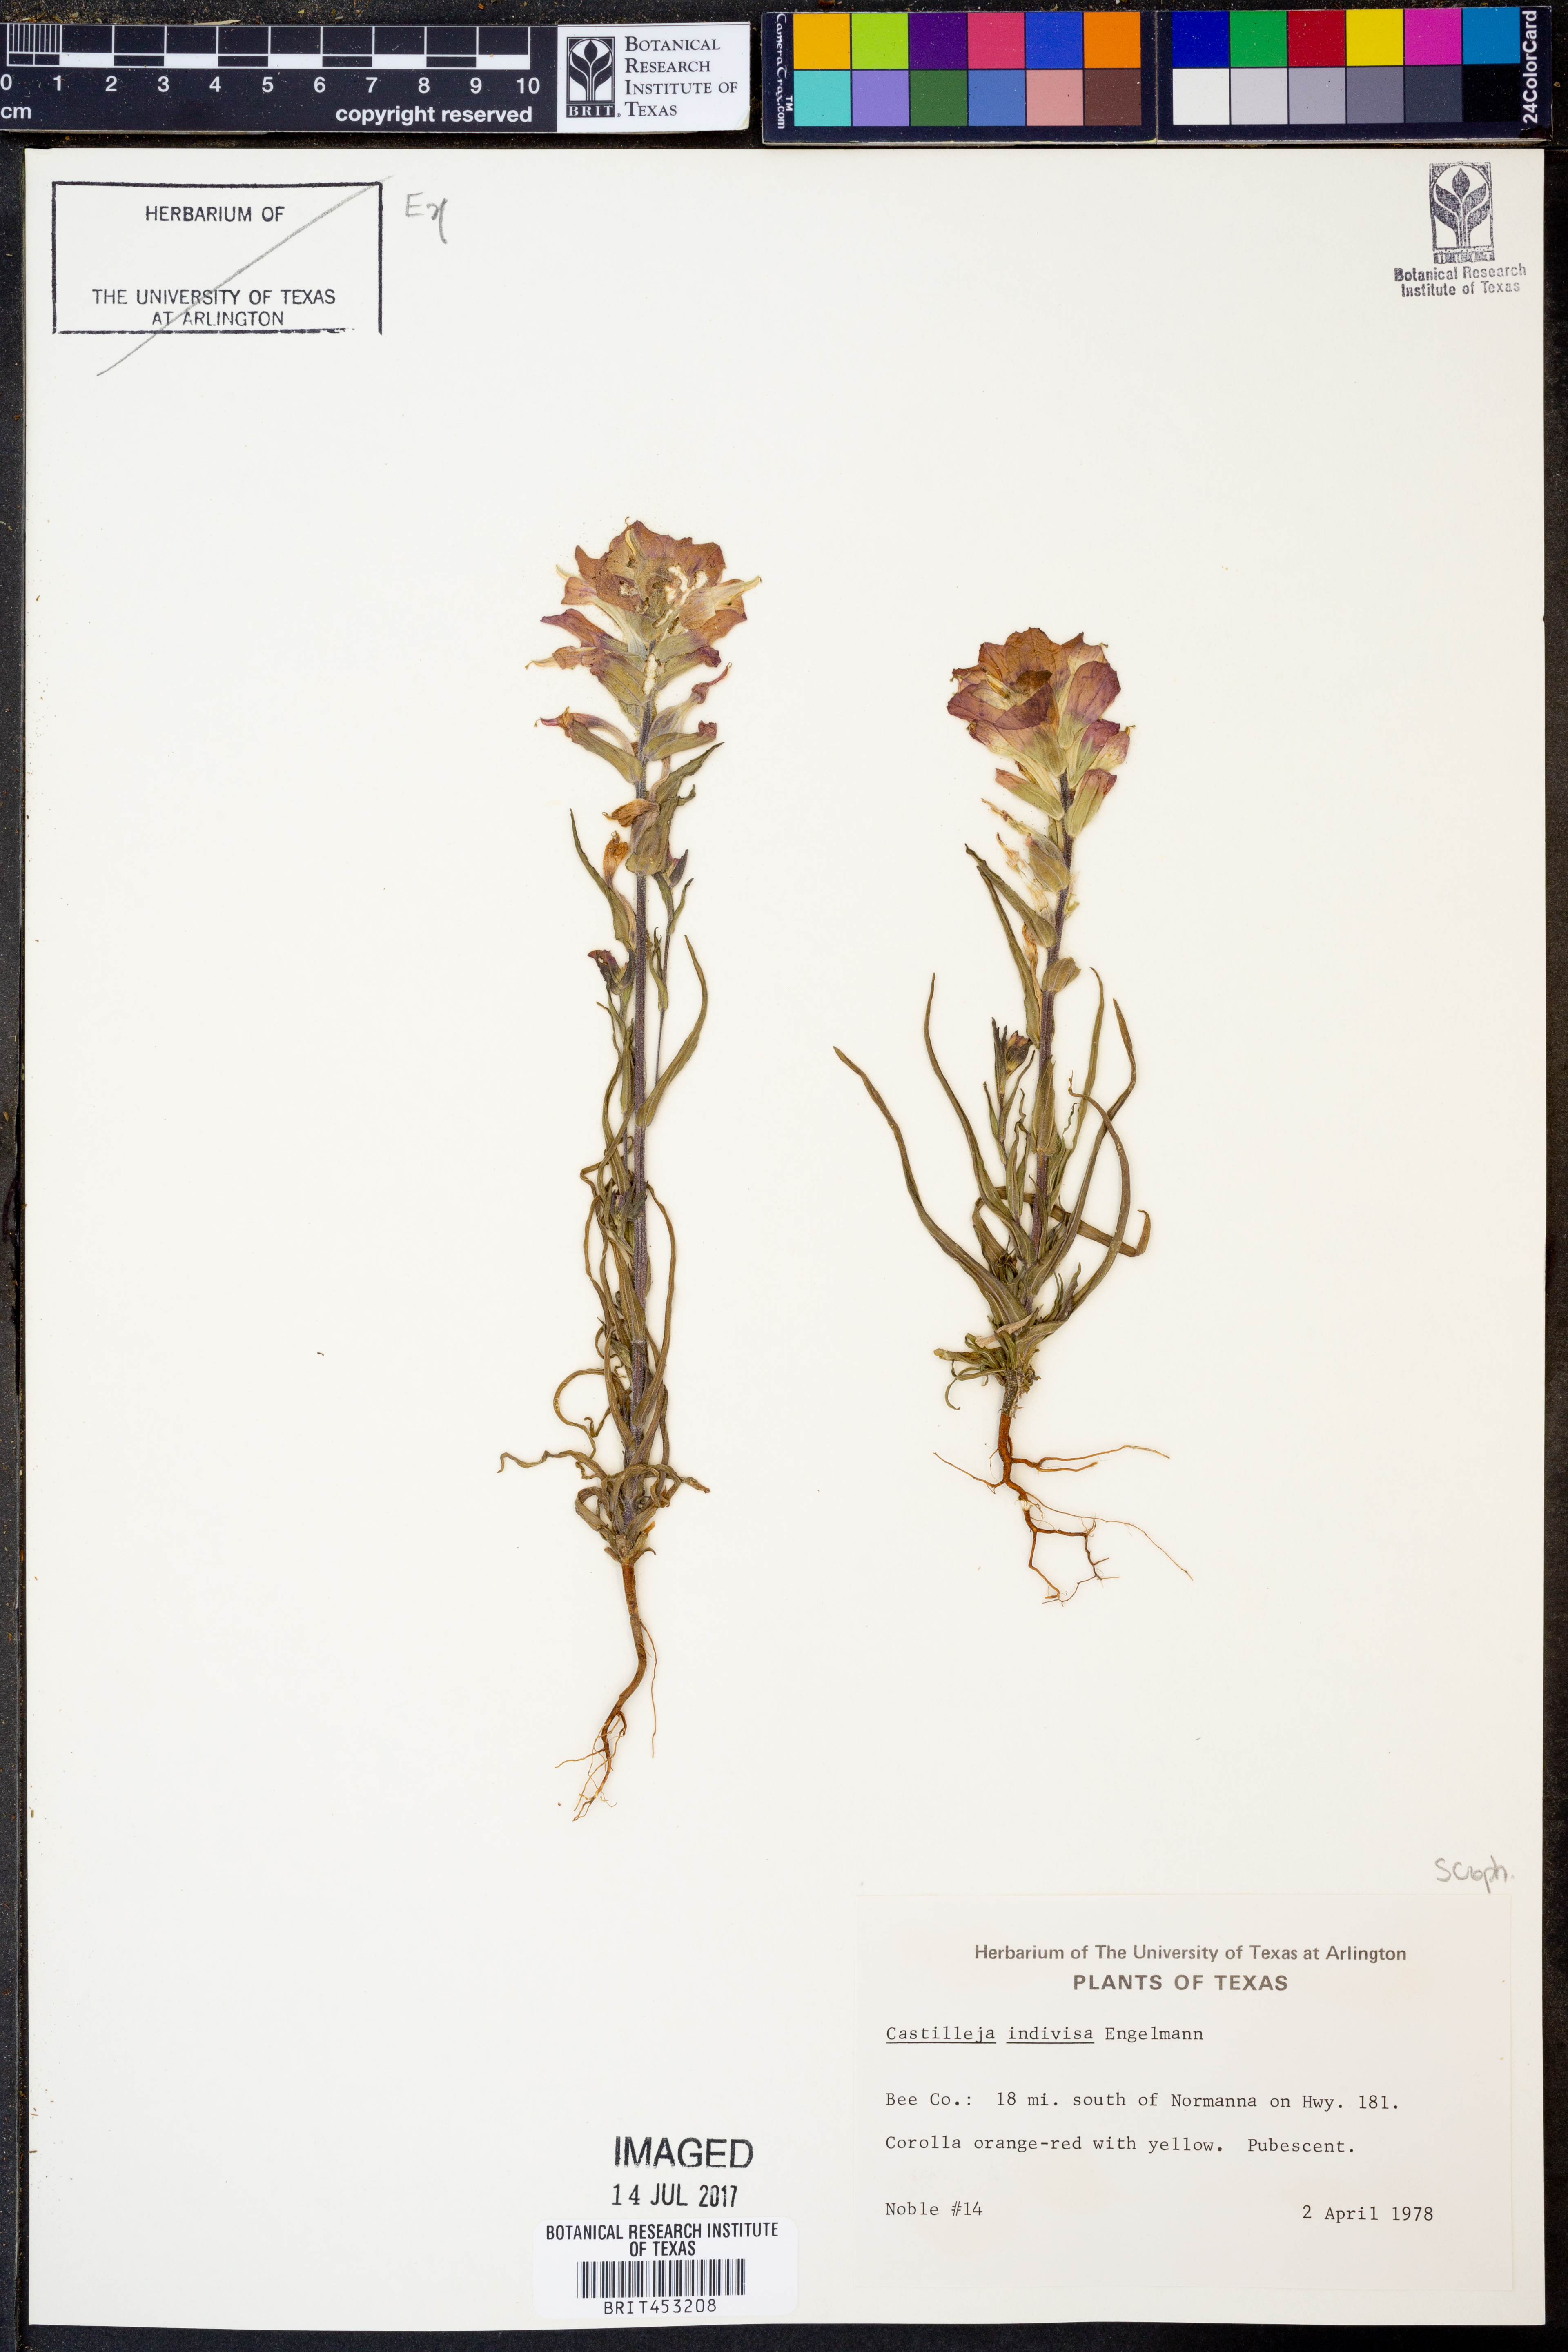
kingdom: Plantae
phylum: Tracheophyta
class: Magnoliopsida
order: Lamiales
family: Orobanchaceae
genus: Castilleja
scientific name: Castilleja indivisa
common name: Texas paintbrush
